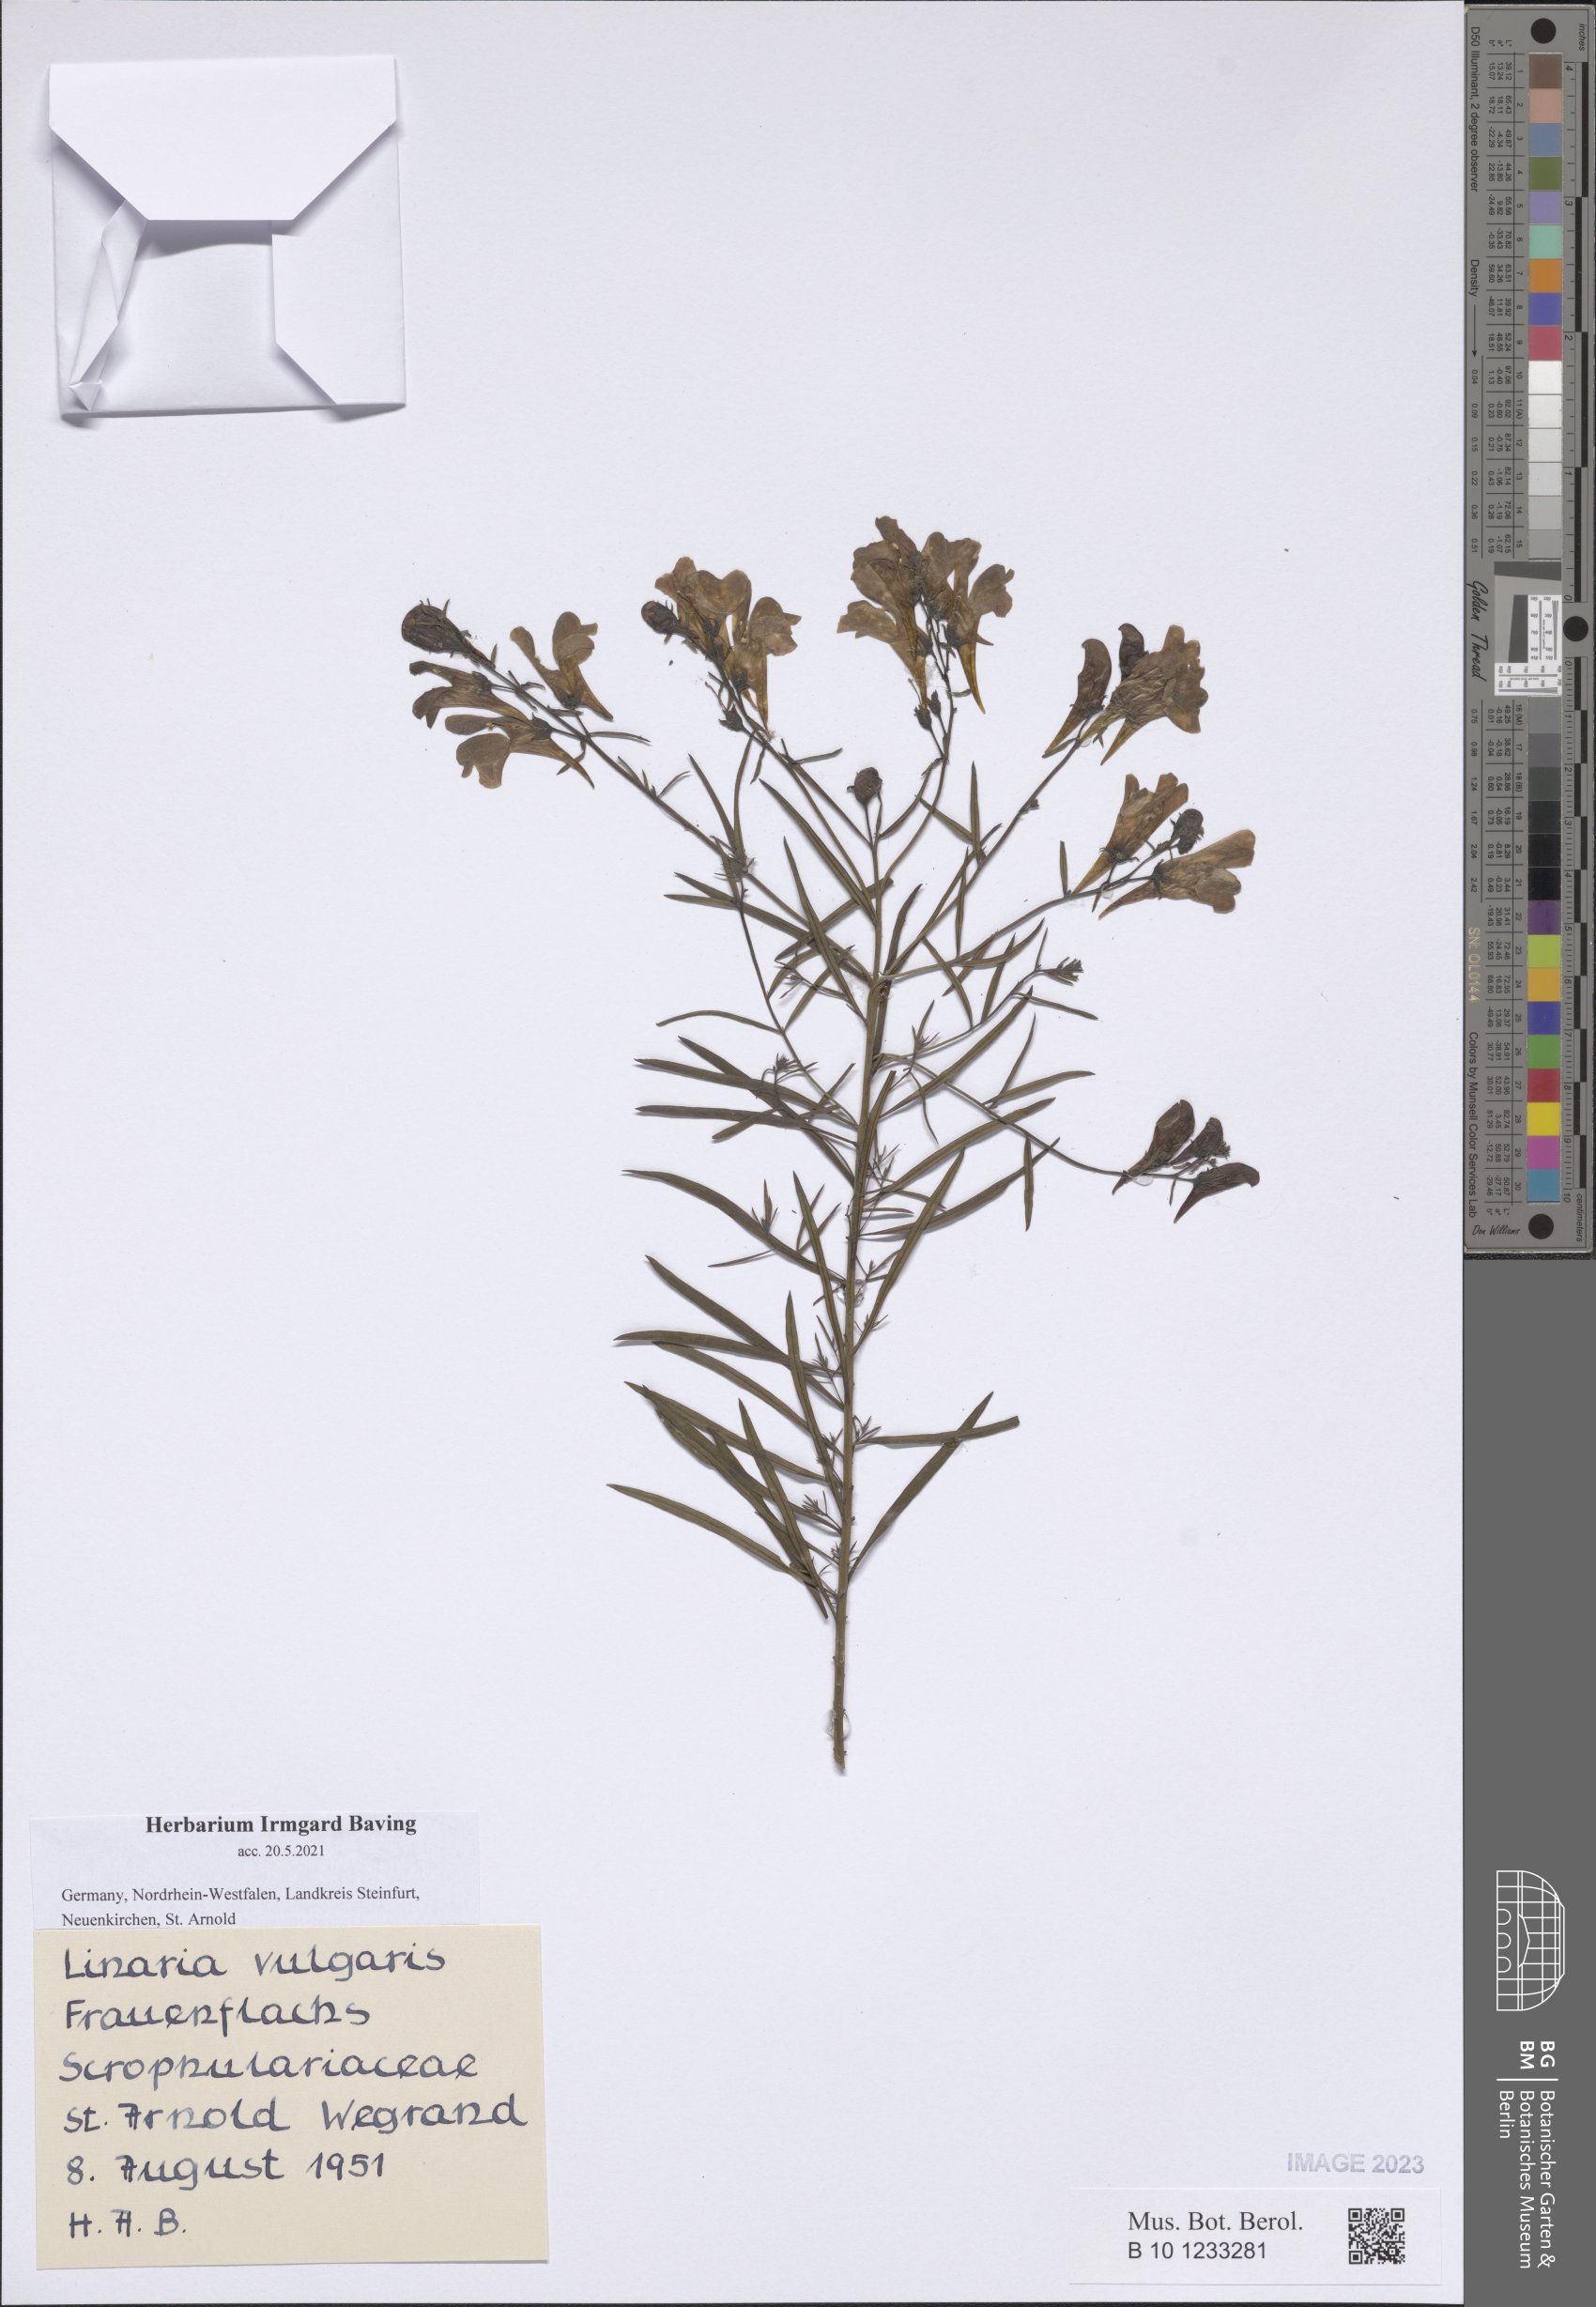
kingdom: Plantae
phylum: Tracheophyta
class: Magnoliopsida
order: Lamiales
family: Plantaginaceae
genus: Linaria
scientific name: Linaria vulgaris
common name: Butter and eggs
